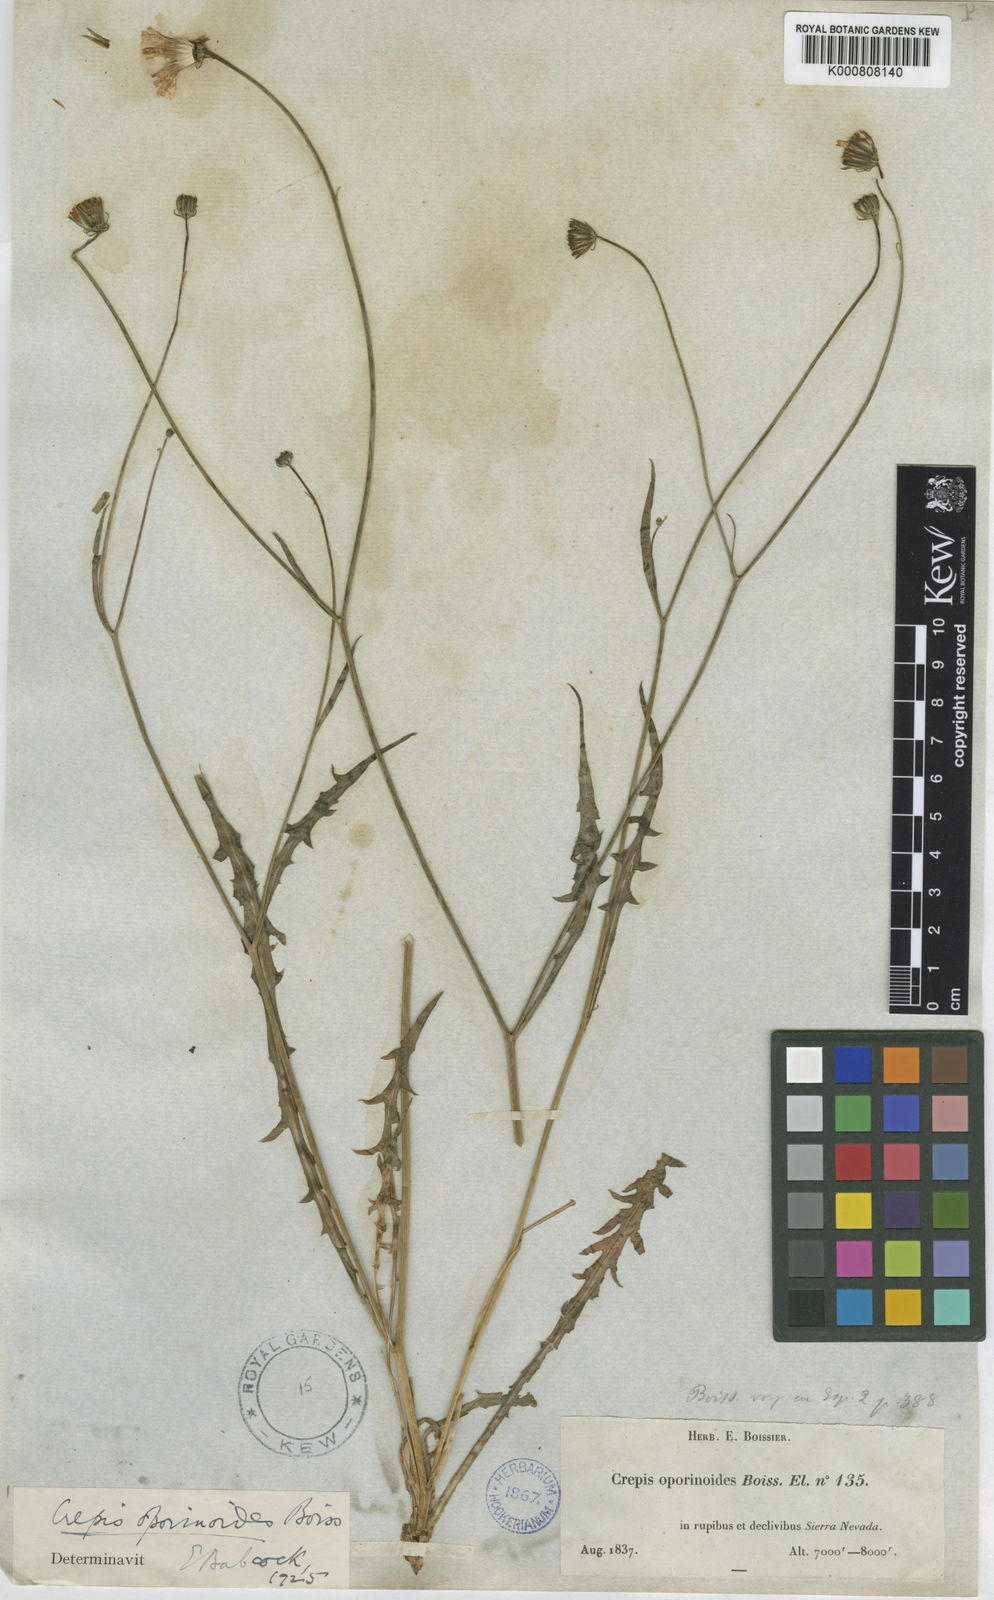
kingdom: Plantae
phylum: Tracheophyta
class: Magnoliopsida
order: Asterales
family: Asteraceae
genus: Crepis
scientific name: Crepis oporinoides
